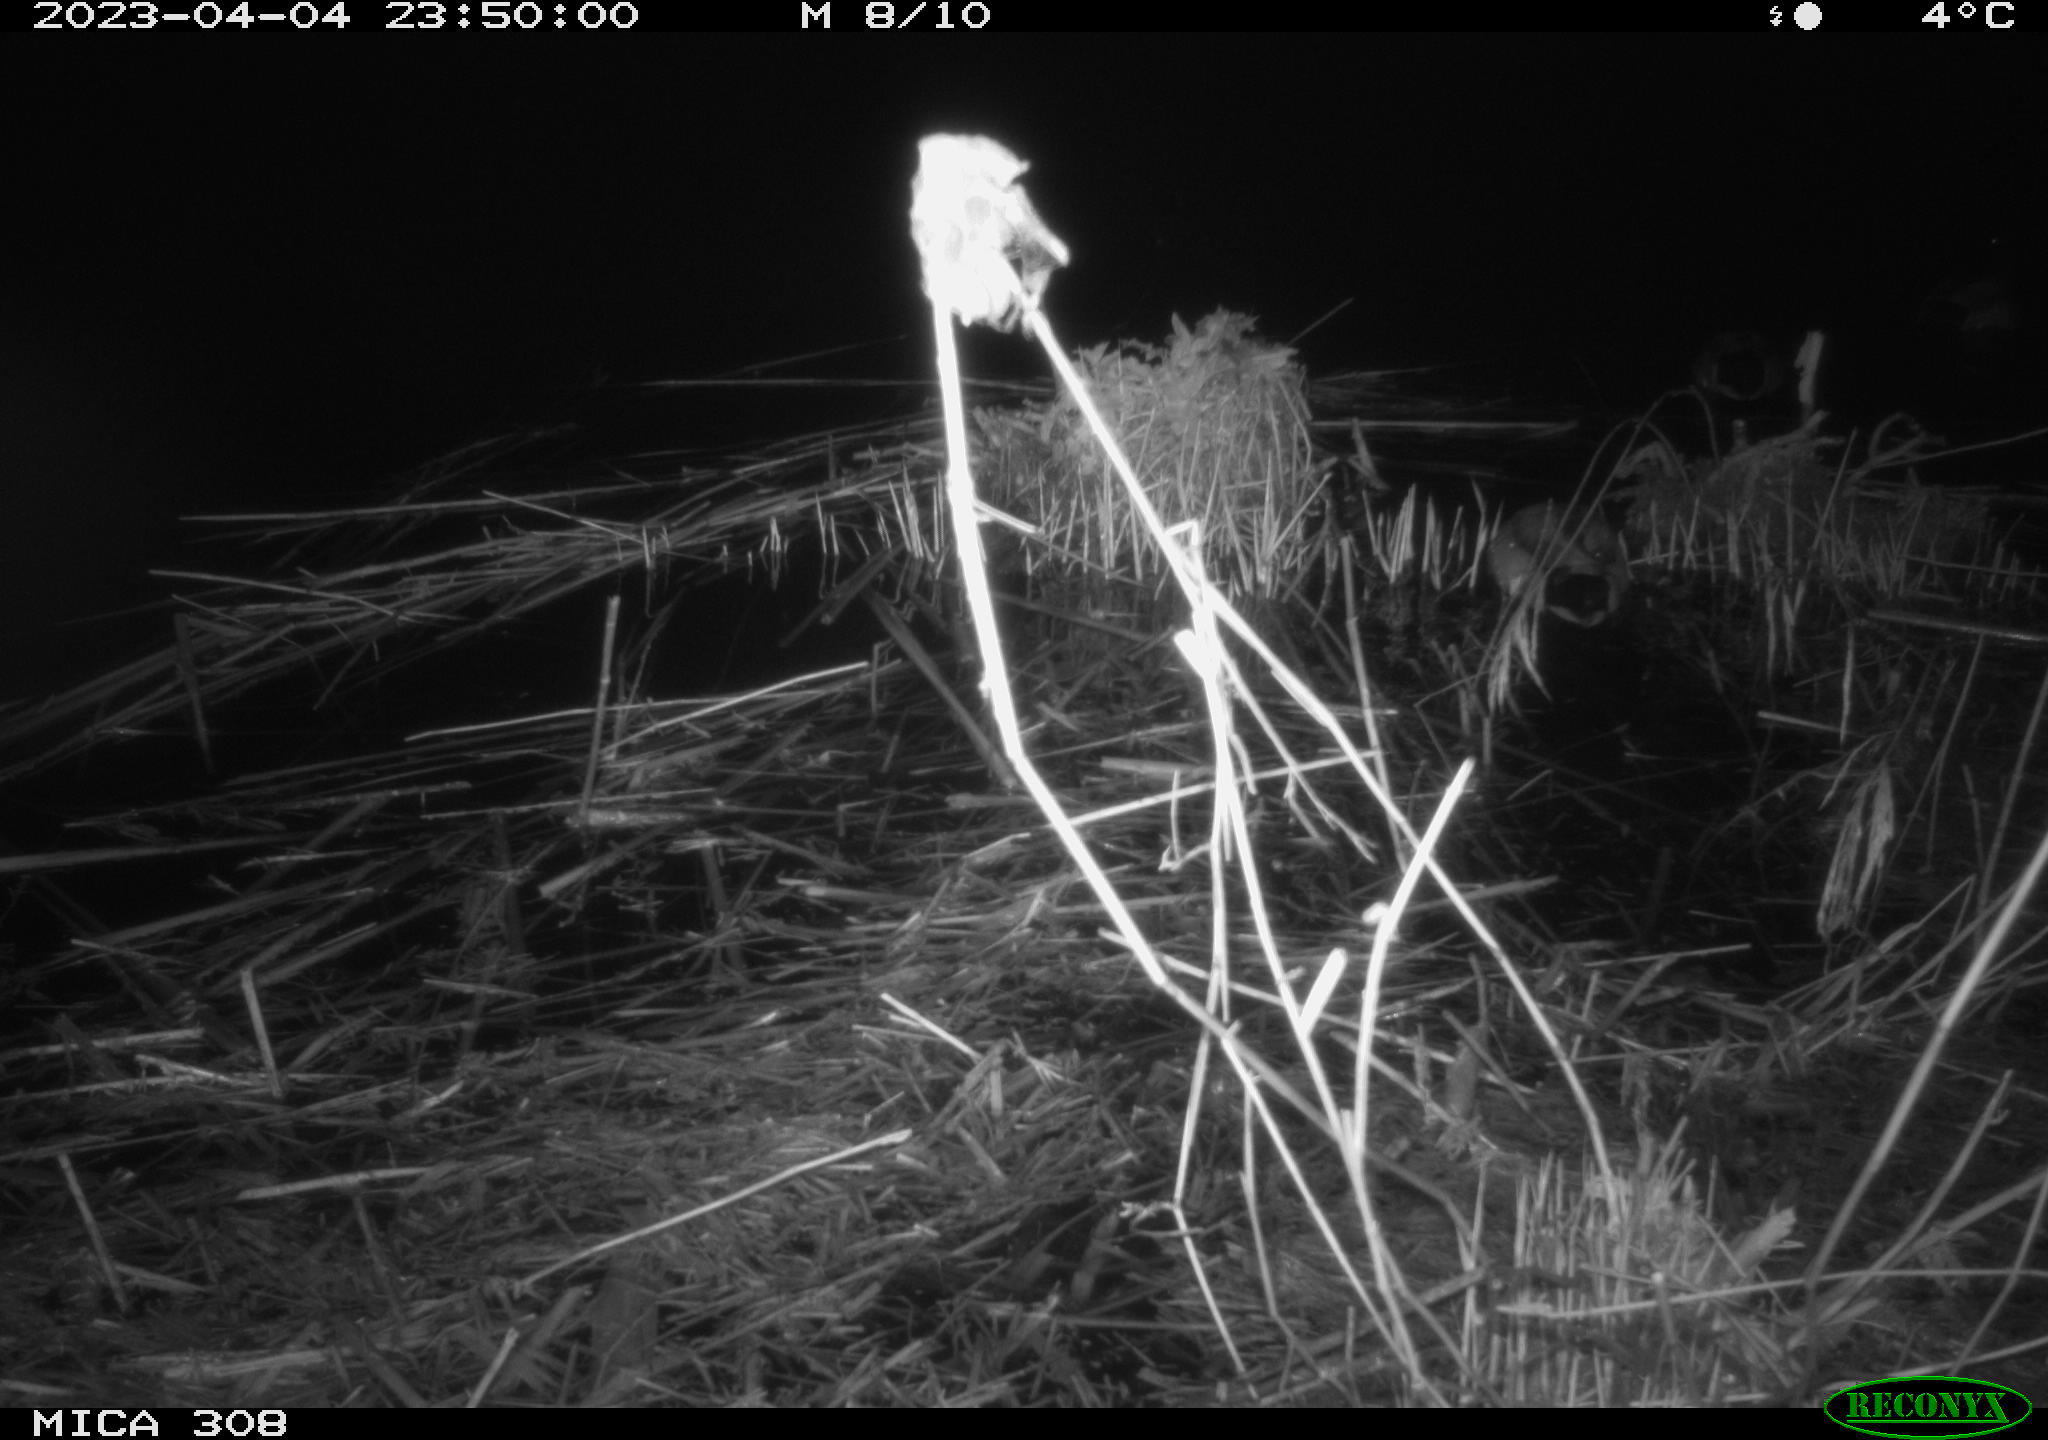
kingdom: Animalia
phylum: Chordata
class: Aves
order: Anseriformes
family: Anatidae
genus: Anas
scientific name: Anas
